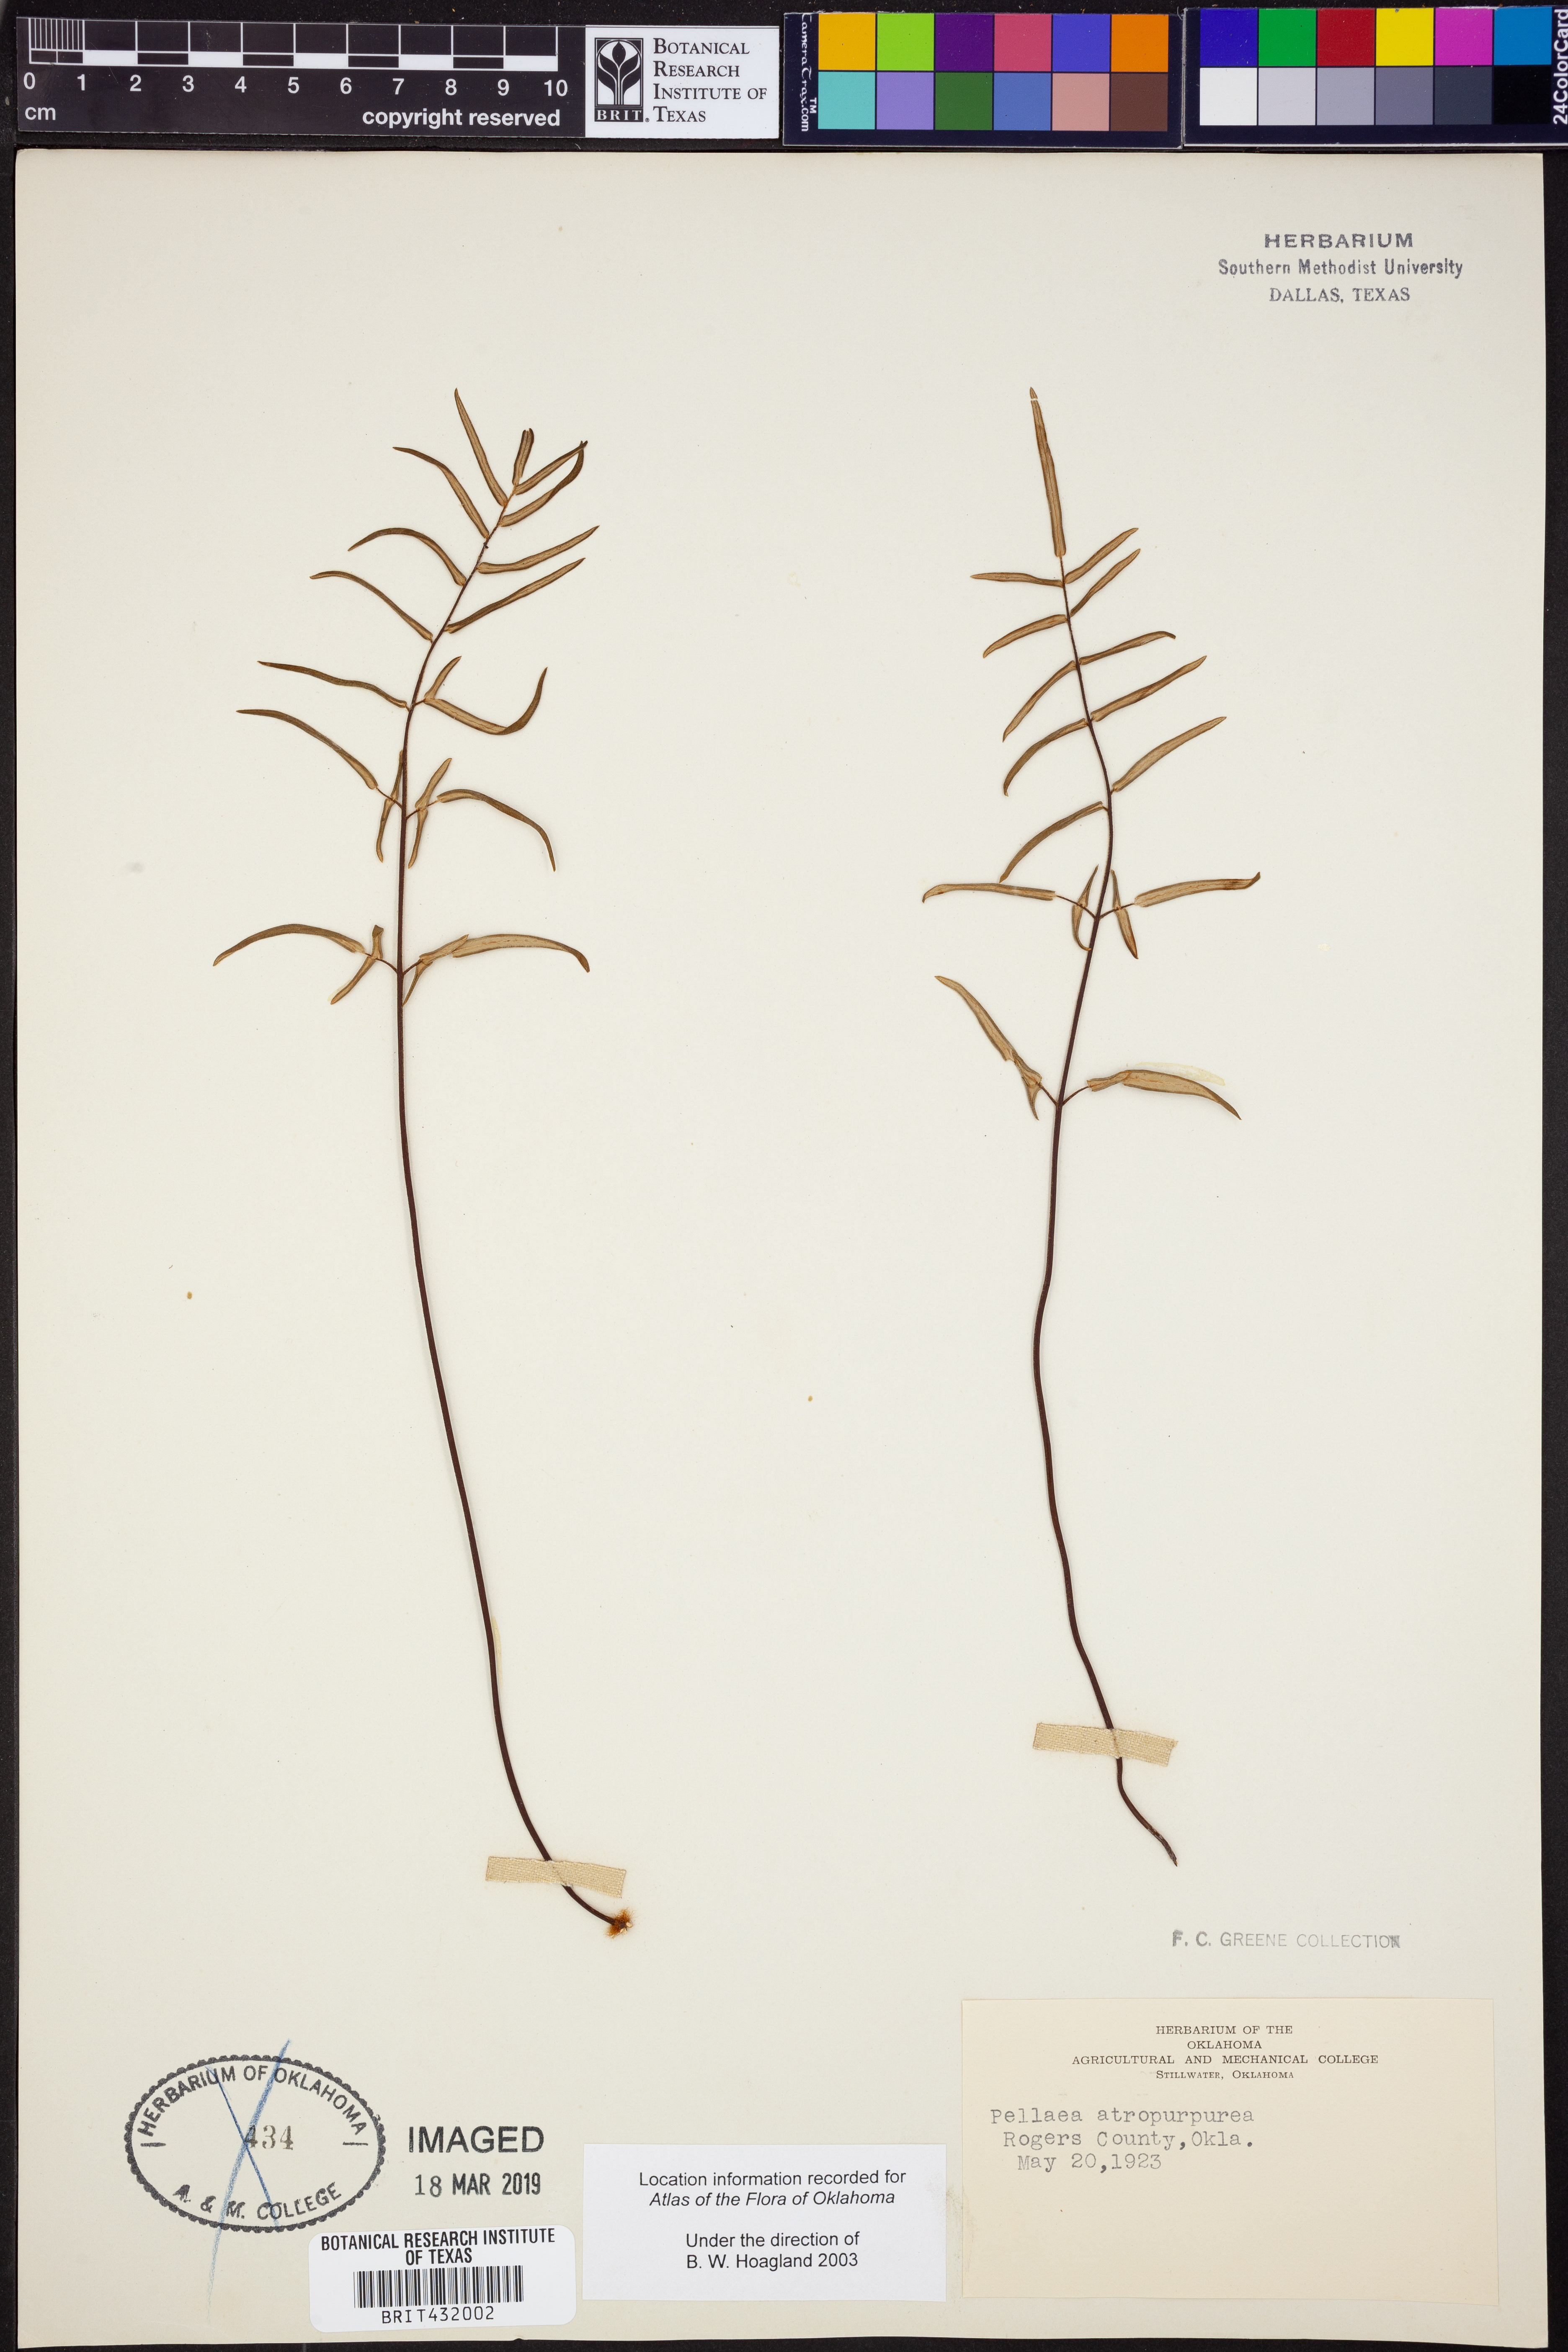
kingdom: Plantae
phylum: Tracheophyta
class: Polypodiopsida
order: Polypodiales
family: Pteridaceae
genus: Pellaea
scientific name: Pellaea atropurpurea
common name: Hairy cliffbrake
